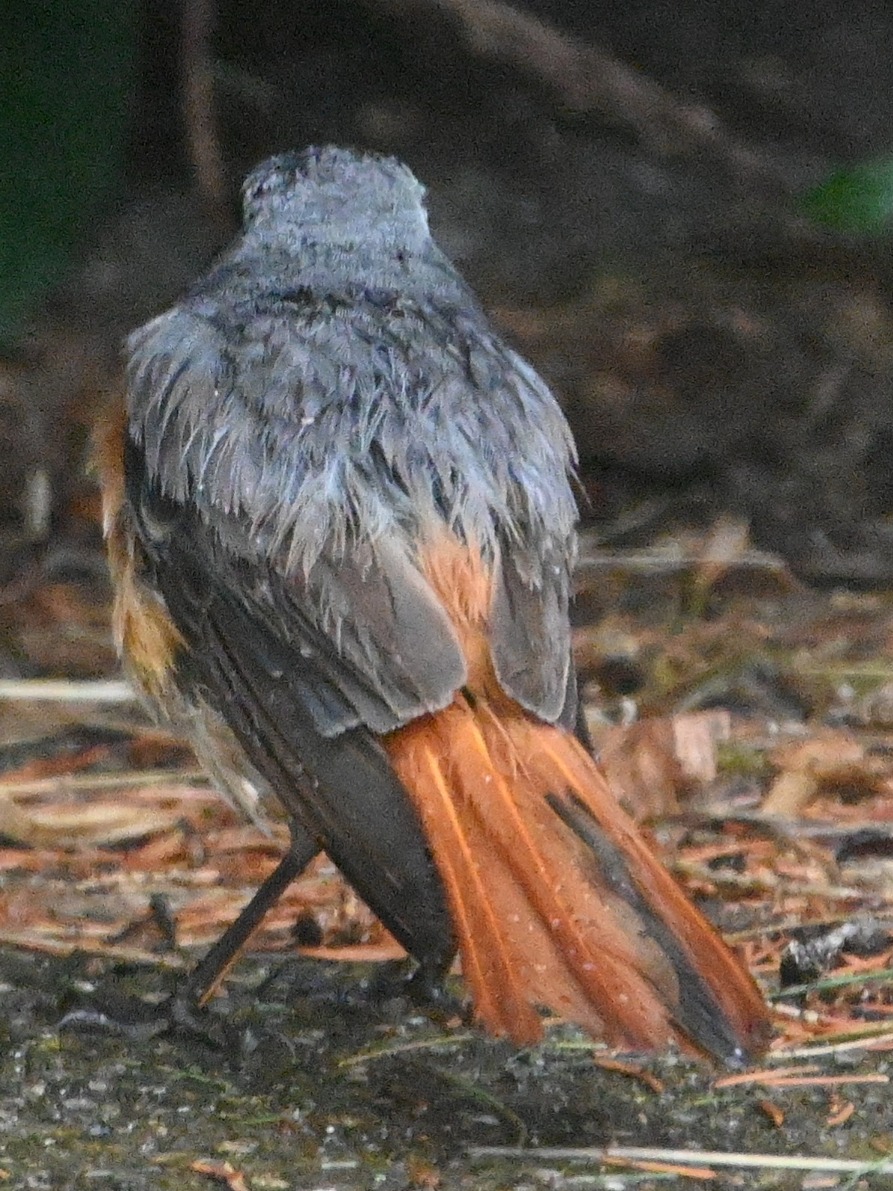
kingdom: Animalia
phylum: Chordata
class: Aves
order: Passeriformes
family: Muscicapidae
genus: Phoenicurus
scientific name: Phoenicurus phoenicurus
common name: Rødstjert
